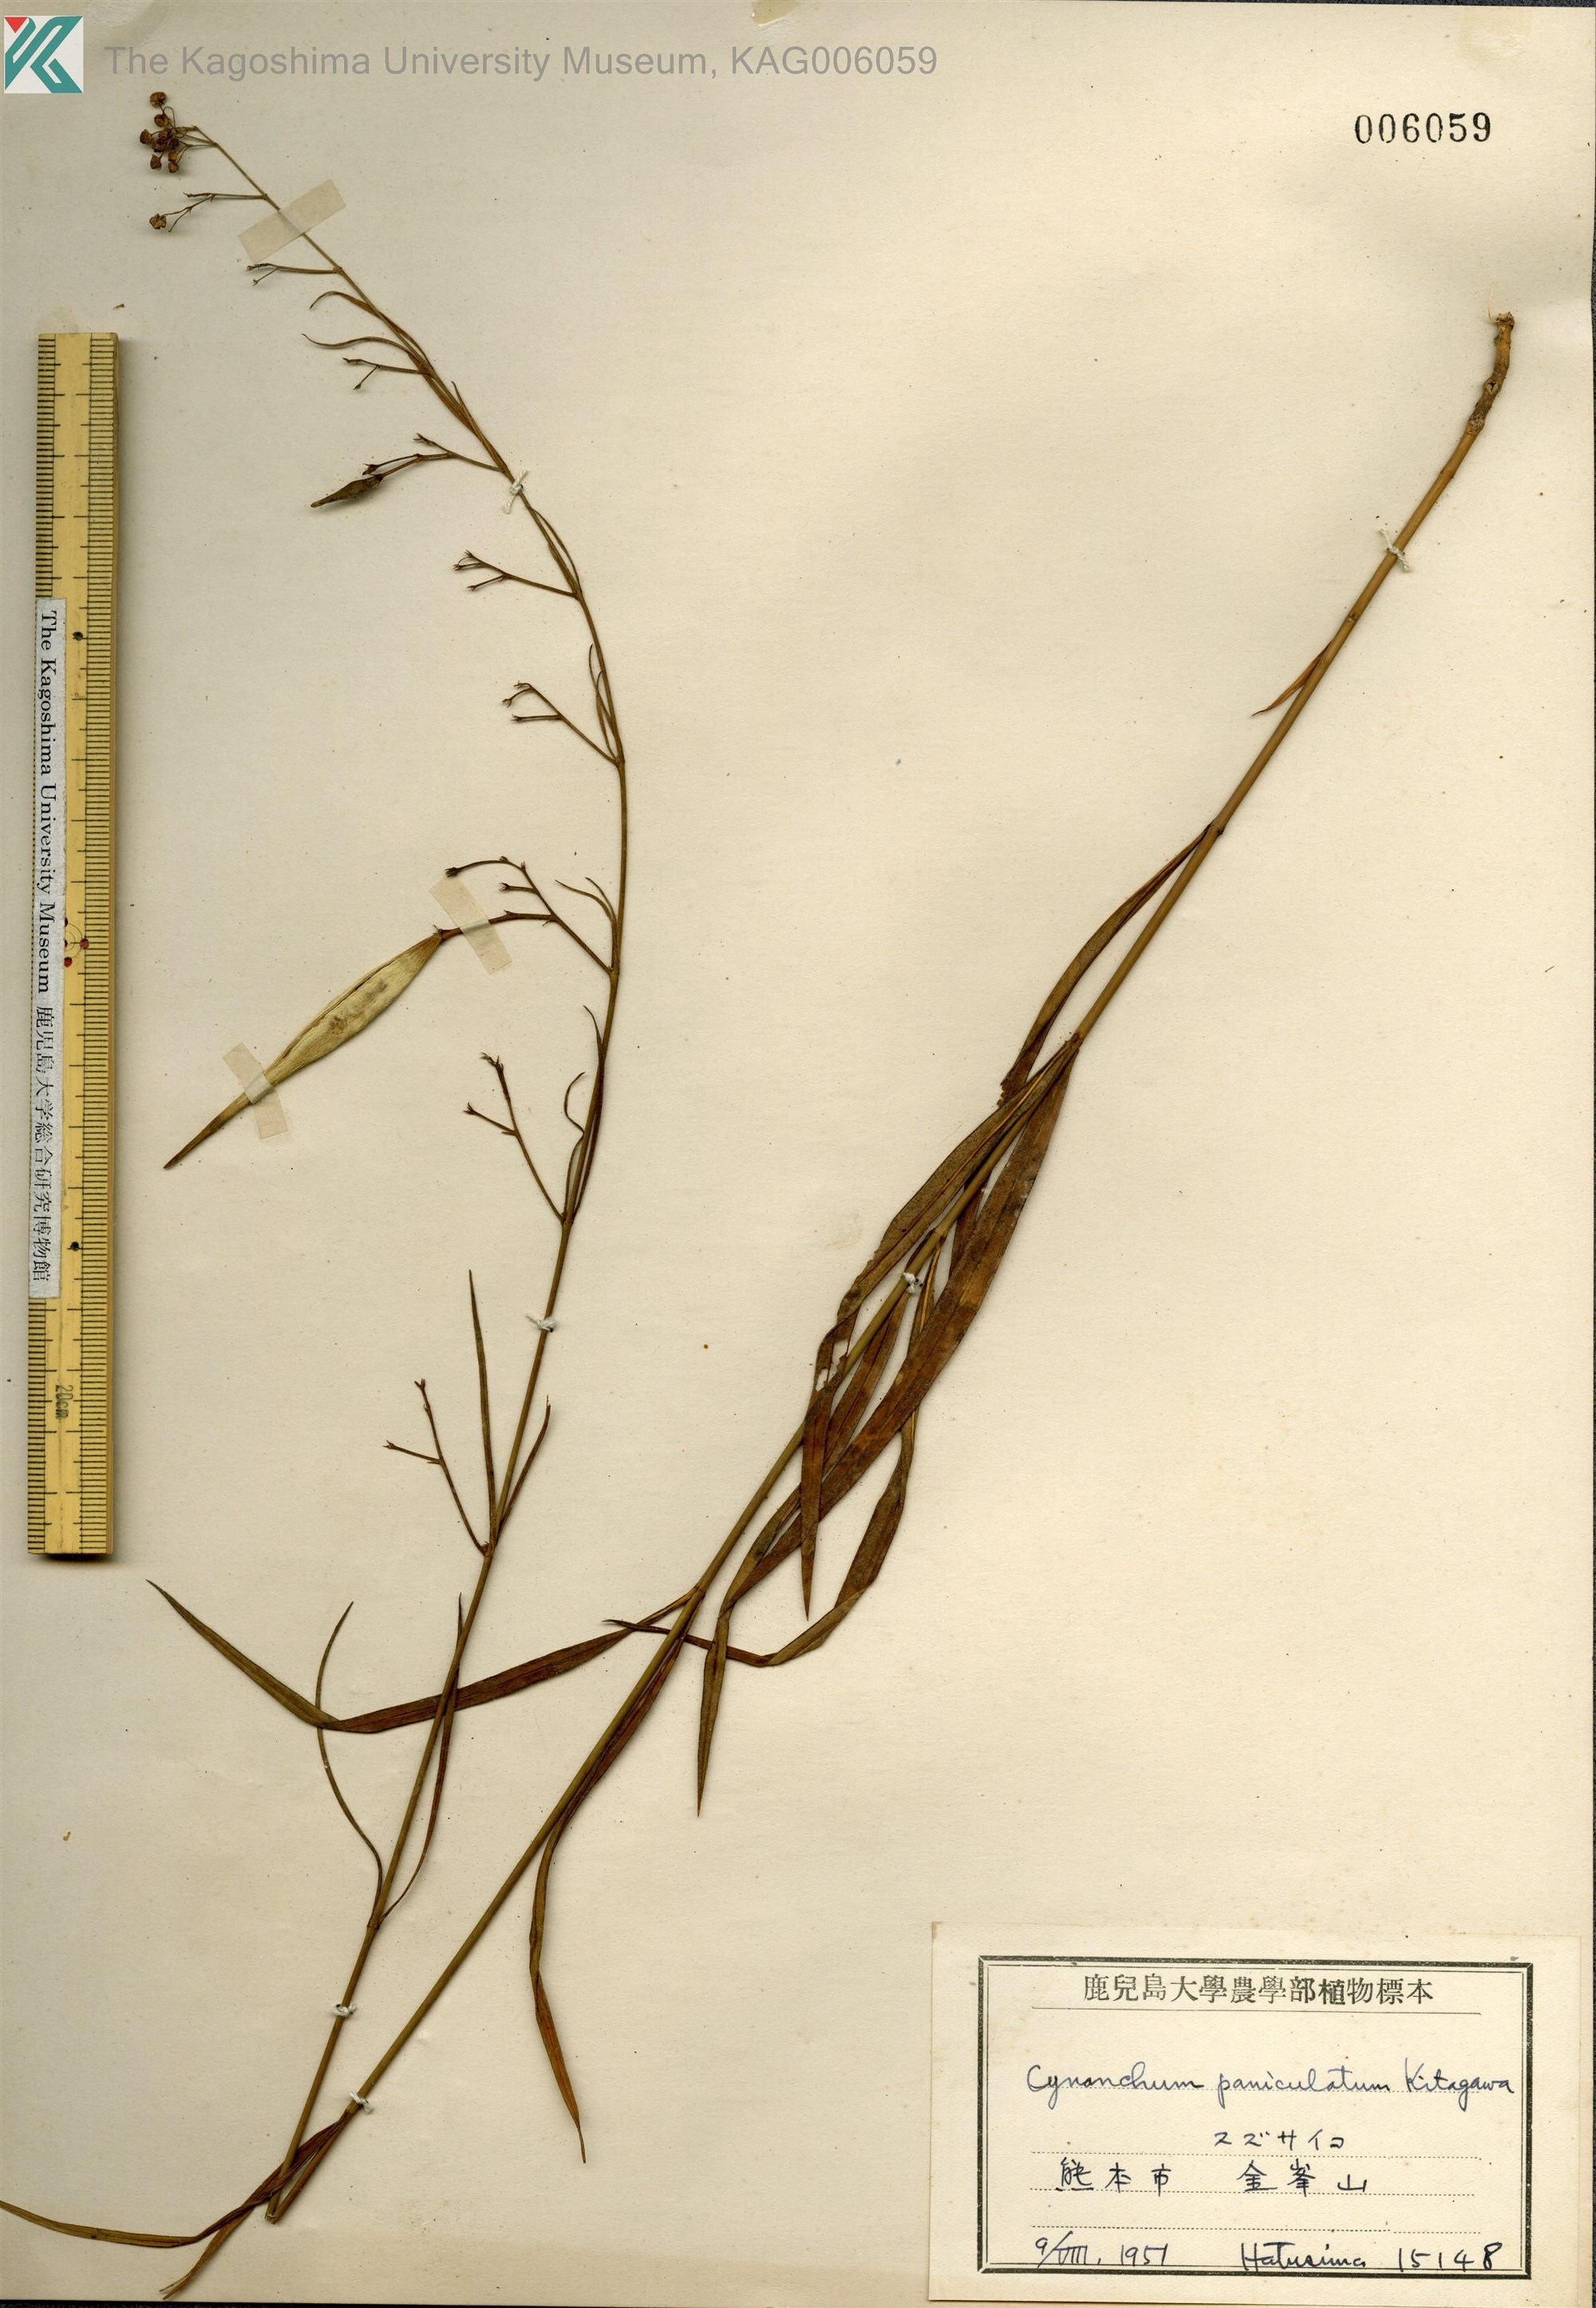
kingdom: Plantae
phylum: Tracheophyta
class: Magnoliopsida
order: Gentianales
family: Apocynaceae
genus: Vincetoxicum
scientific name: Vincetoxicum mukdenense
